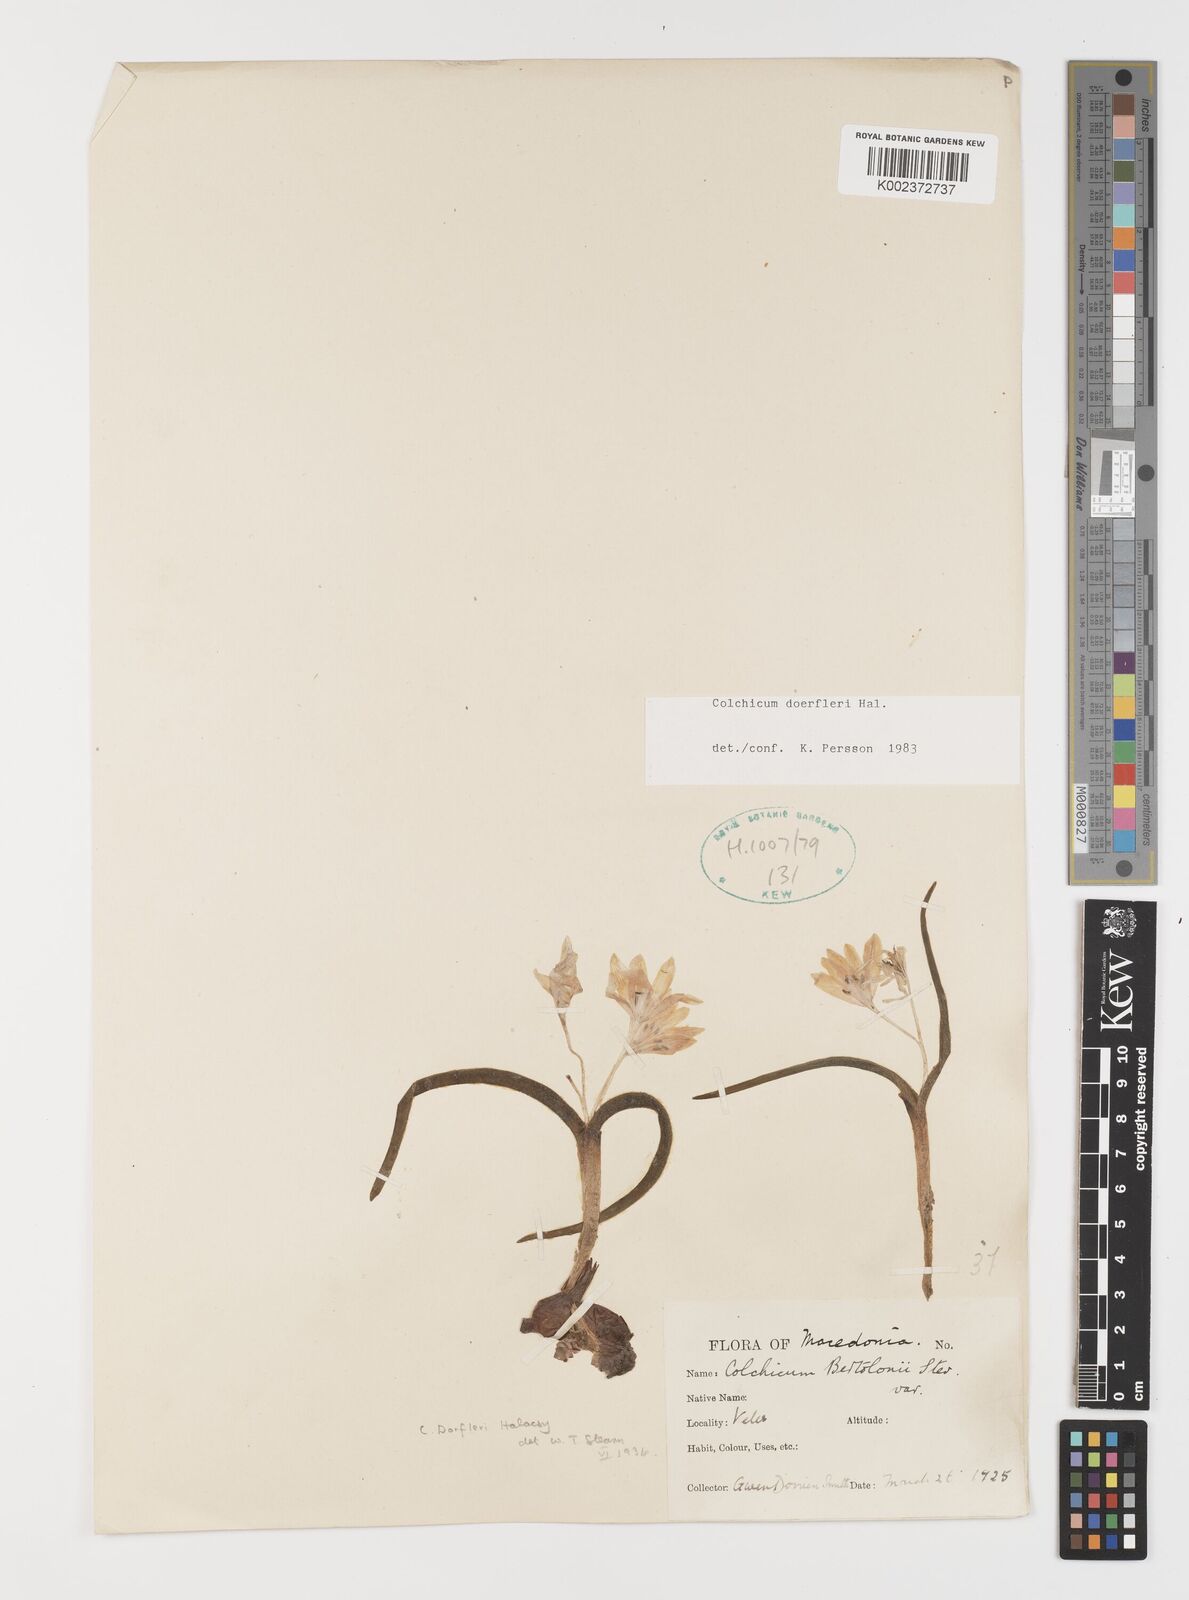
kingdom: Plantae
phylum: Tracheophyta
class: Liliopsida
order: Liliales
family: Colchicaceae
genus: Colchicum
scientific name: Colchicum doerfleri
